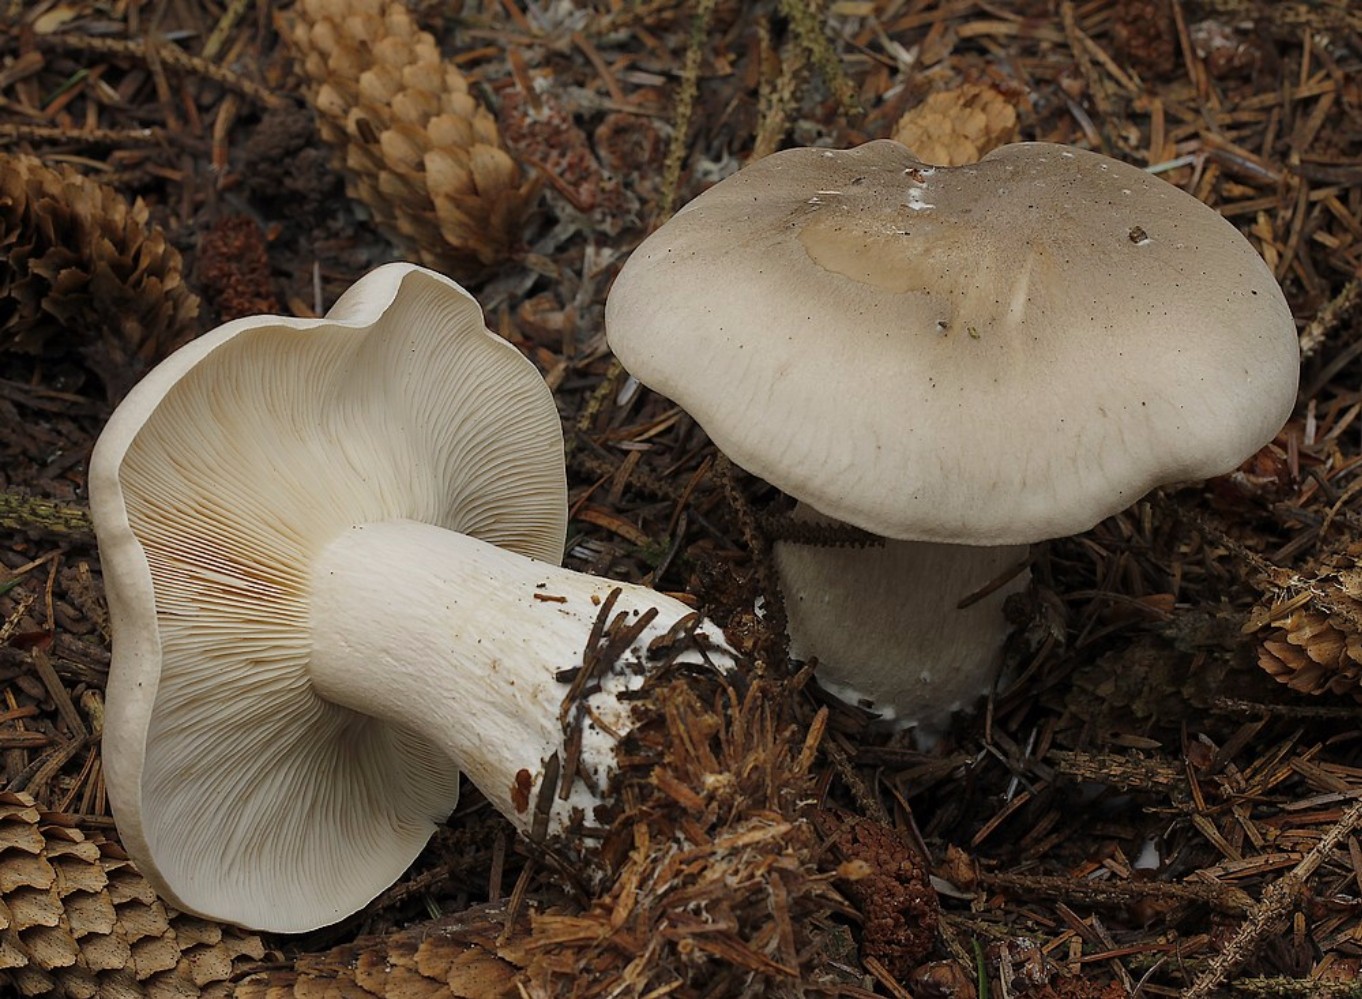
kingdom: Fungi
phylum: Basidiomycota
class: Agaricomycetes
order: Agaricales
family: Tricholomataceae
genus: Clitocybe
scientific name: Clitocybe nebularis
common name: tåge-tragthat
